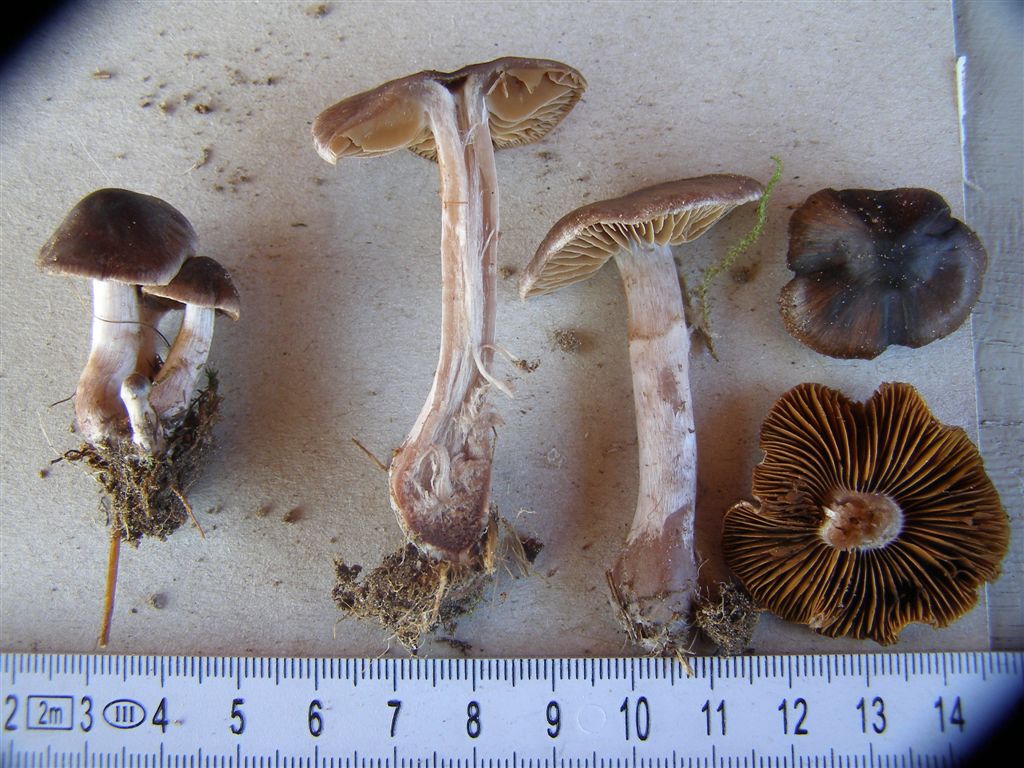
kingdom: Fungi
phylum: Basidiomycota
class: Agaricomycetes
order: Agaricales
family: Cortinariaceae
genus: Cortinarius
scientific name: Cortinarius vernus
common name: sommer-slørhat
